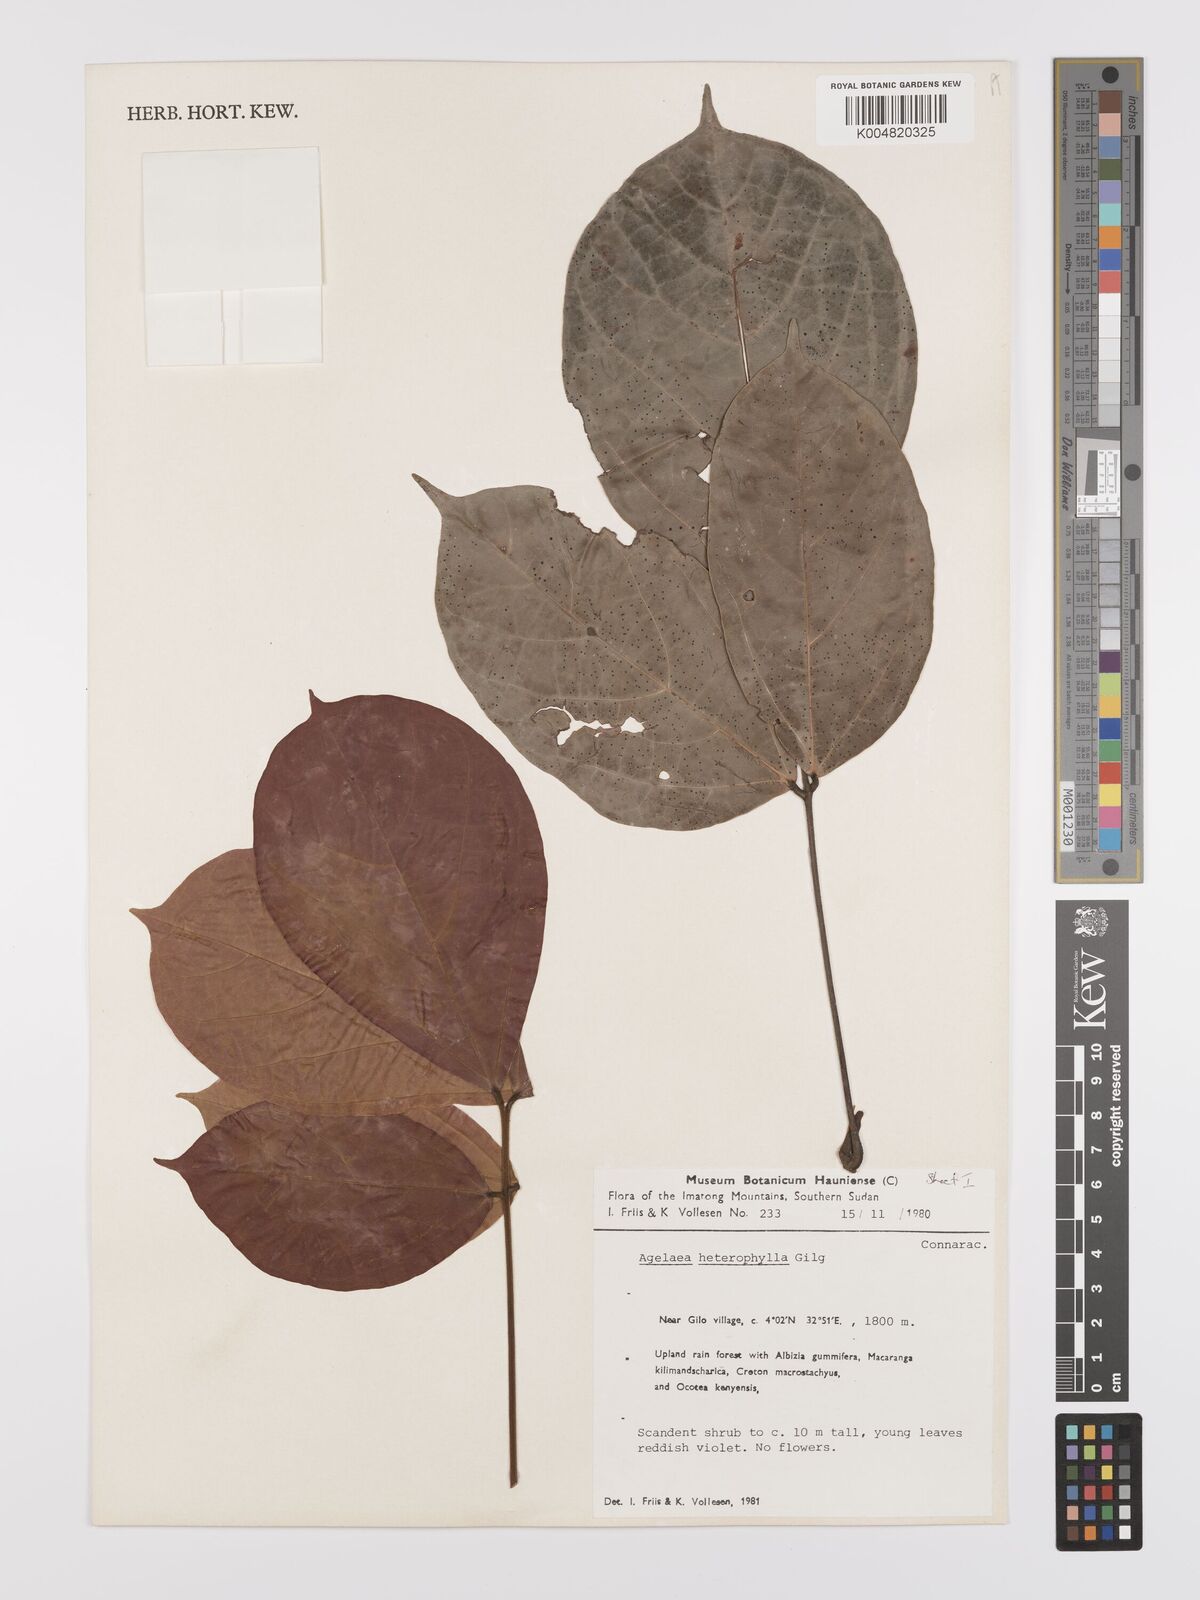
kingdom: Plantae
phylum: Tracheophyta
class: Magnoliopsida
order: Oxalidales
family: Connaraceae
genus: Agelaea
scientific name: Agelaea pentagyna
